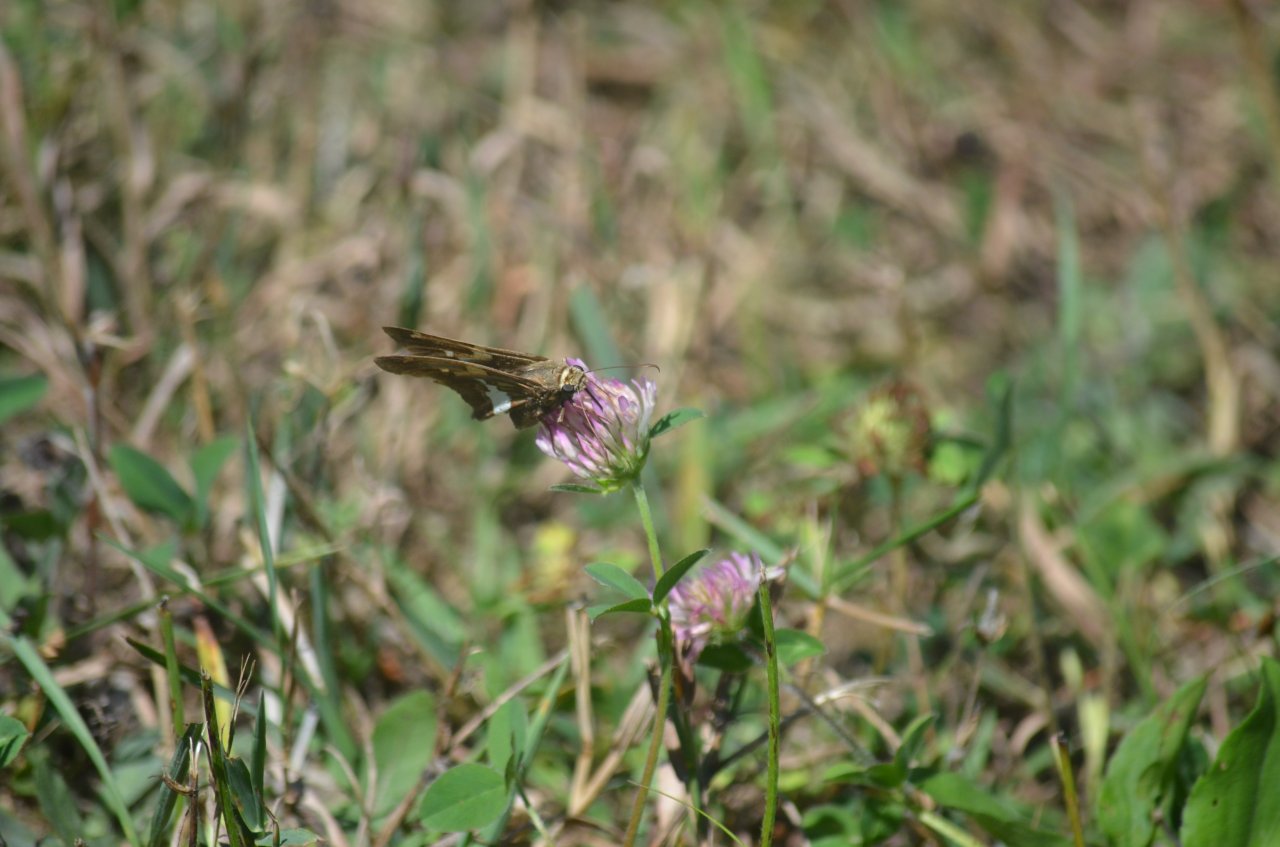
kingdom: Animalia
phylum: Arthropoda
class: Insecta
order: Lepidoptera
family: Hesperiidae
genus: Epargyreus
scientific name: Epargyreus clarus
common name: Silver-spotted Skipper
